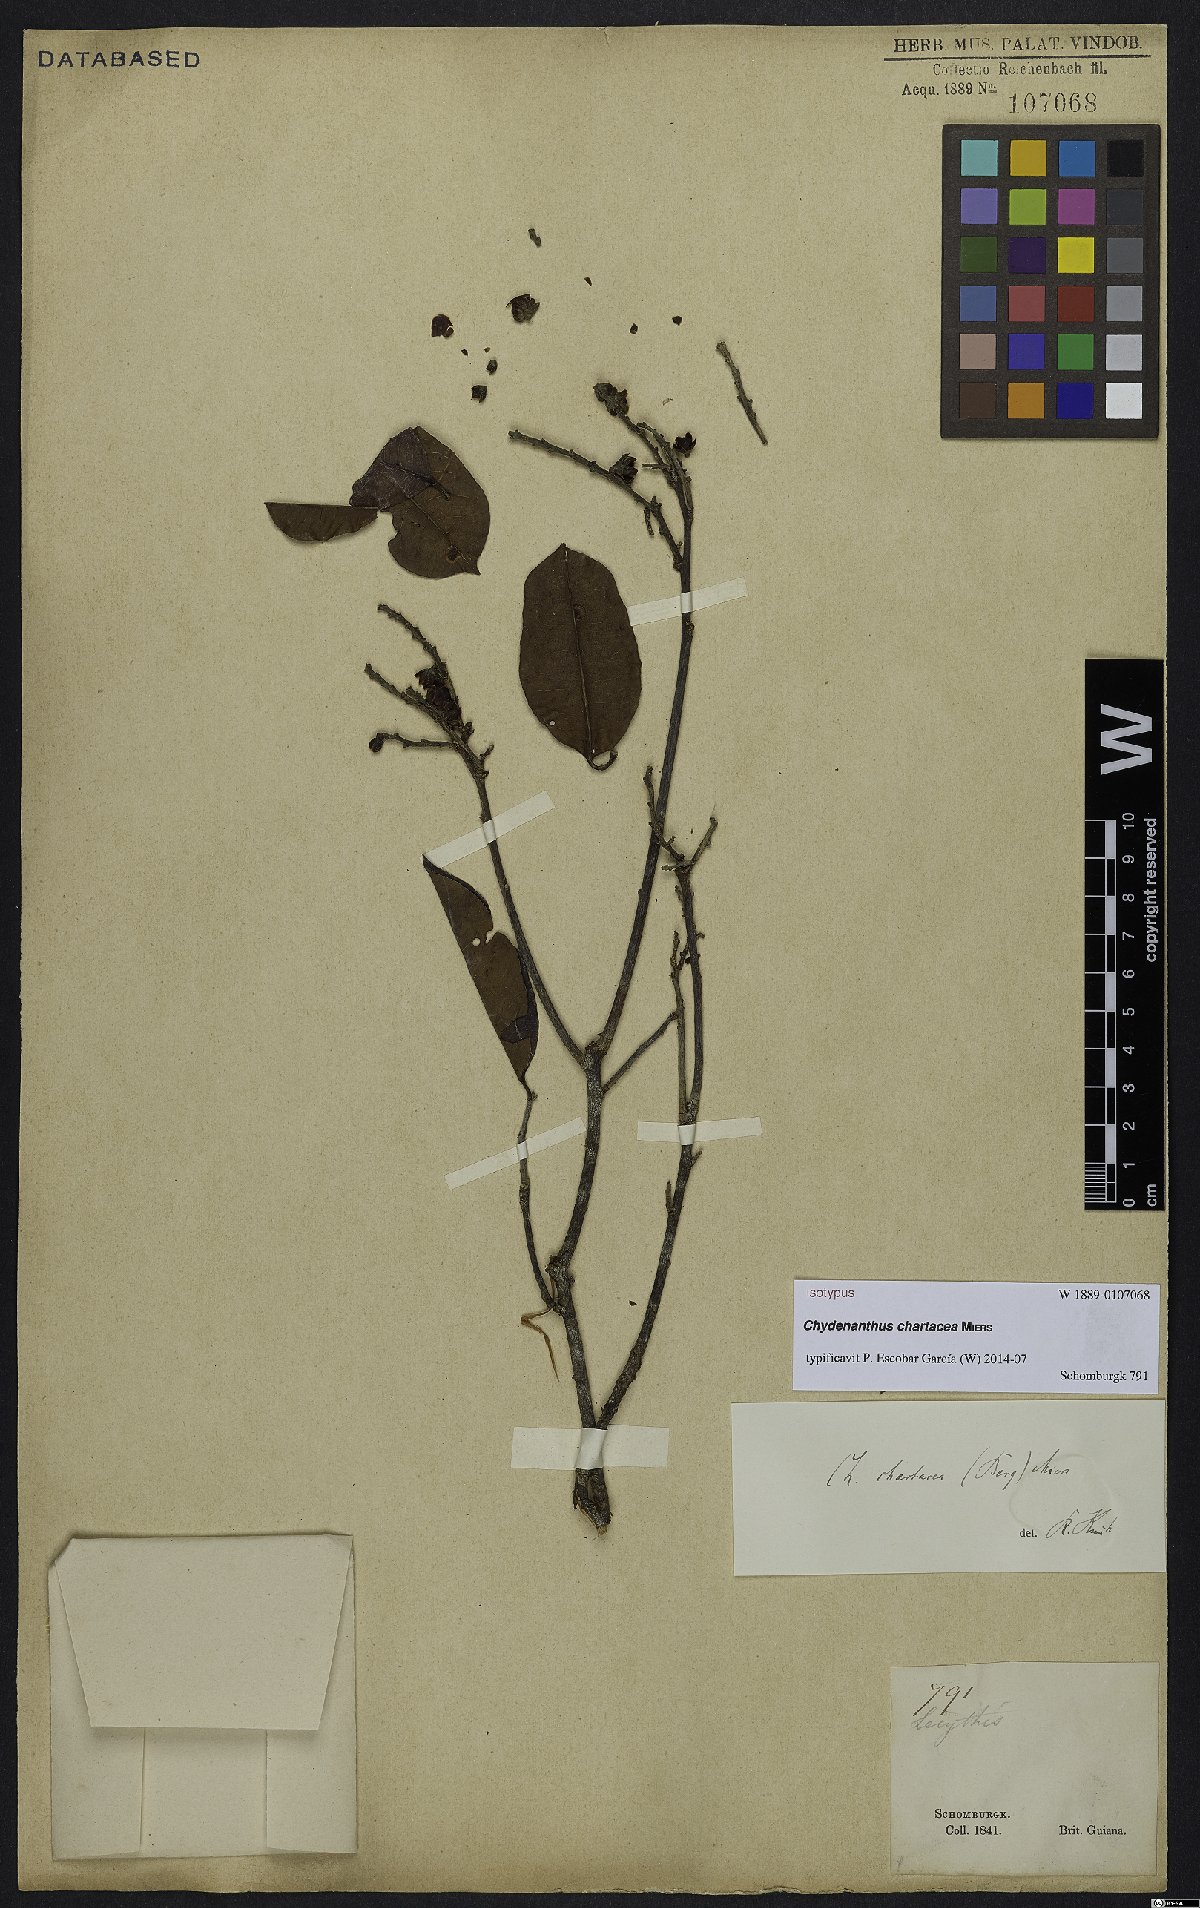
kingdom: Plantae
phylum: Tracheophyta
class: Magnoliopsida
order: Ericales
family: Lecythidaceae
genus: Chydenanthus
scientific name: Chydenanthus chartacea
